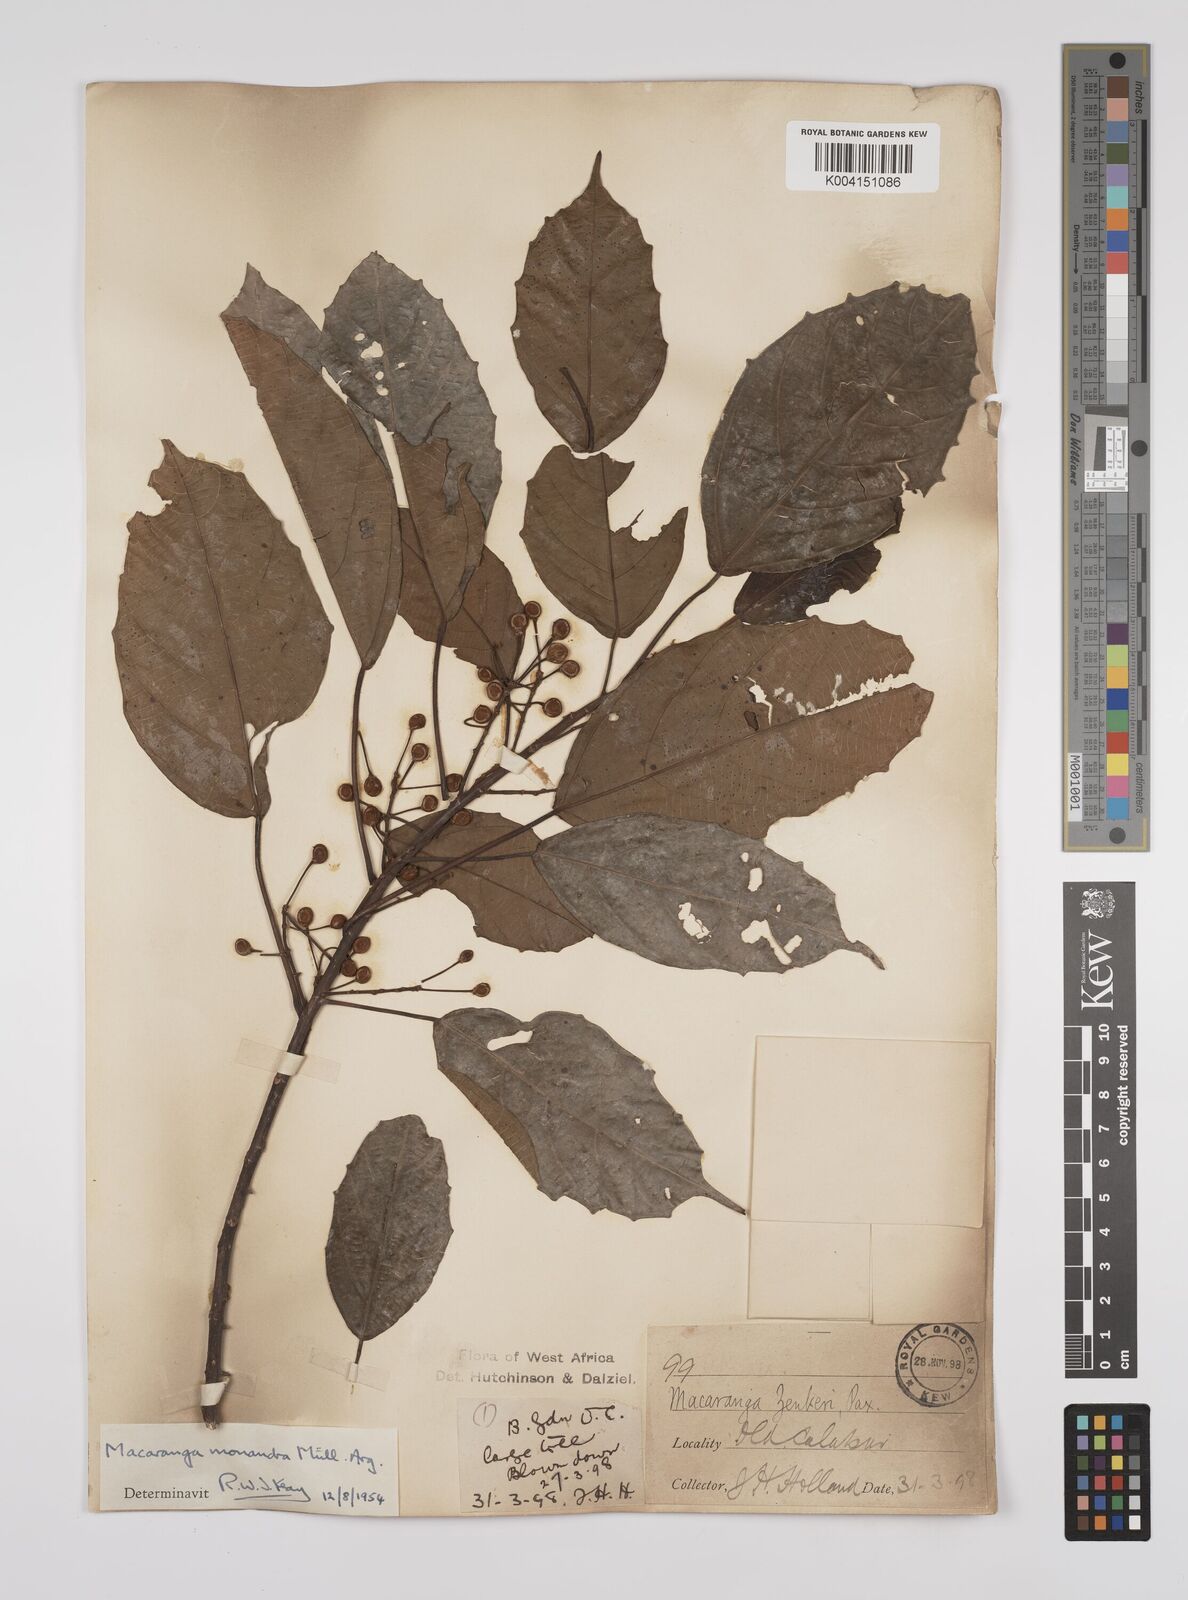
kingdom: Plantae
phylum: Tracheophyta
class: Magnoliopsida
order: Malpighiales
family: Euphorbiaceae
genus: Macaranga
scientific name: Macaranga monandra
